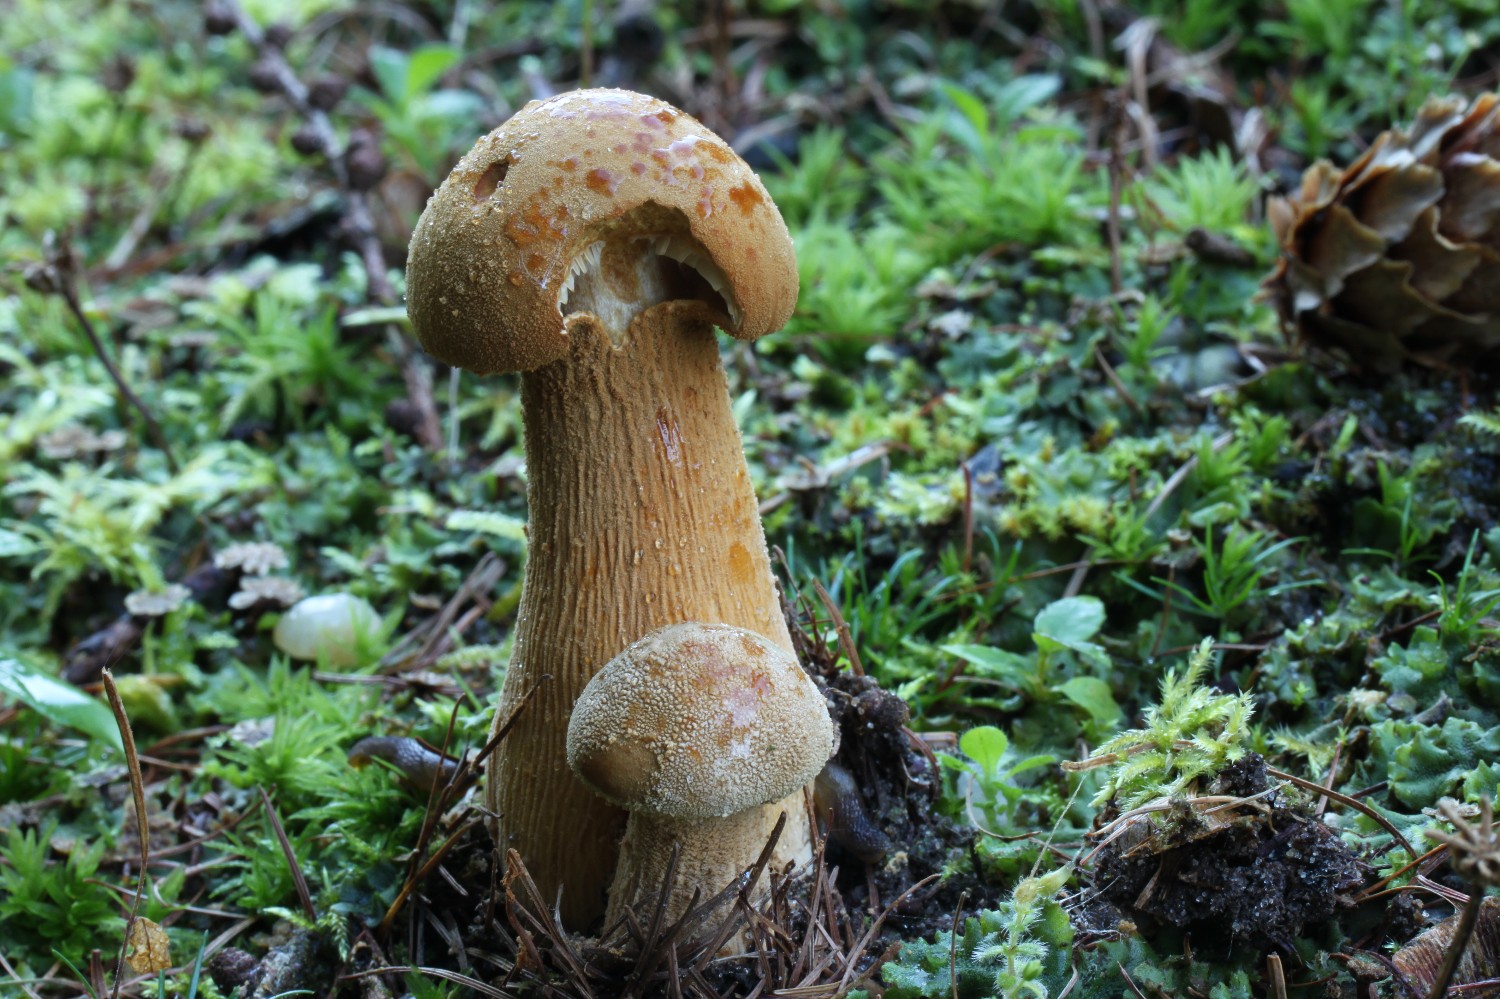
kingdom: Fungi
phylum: Basidiomycota
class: Agaricomycetes
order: Agaricales
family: Tricholomataceae
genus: Phaeolepiota
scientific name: Phaeolepiota aurea
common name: gyldenhat
